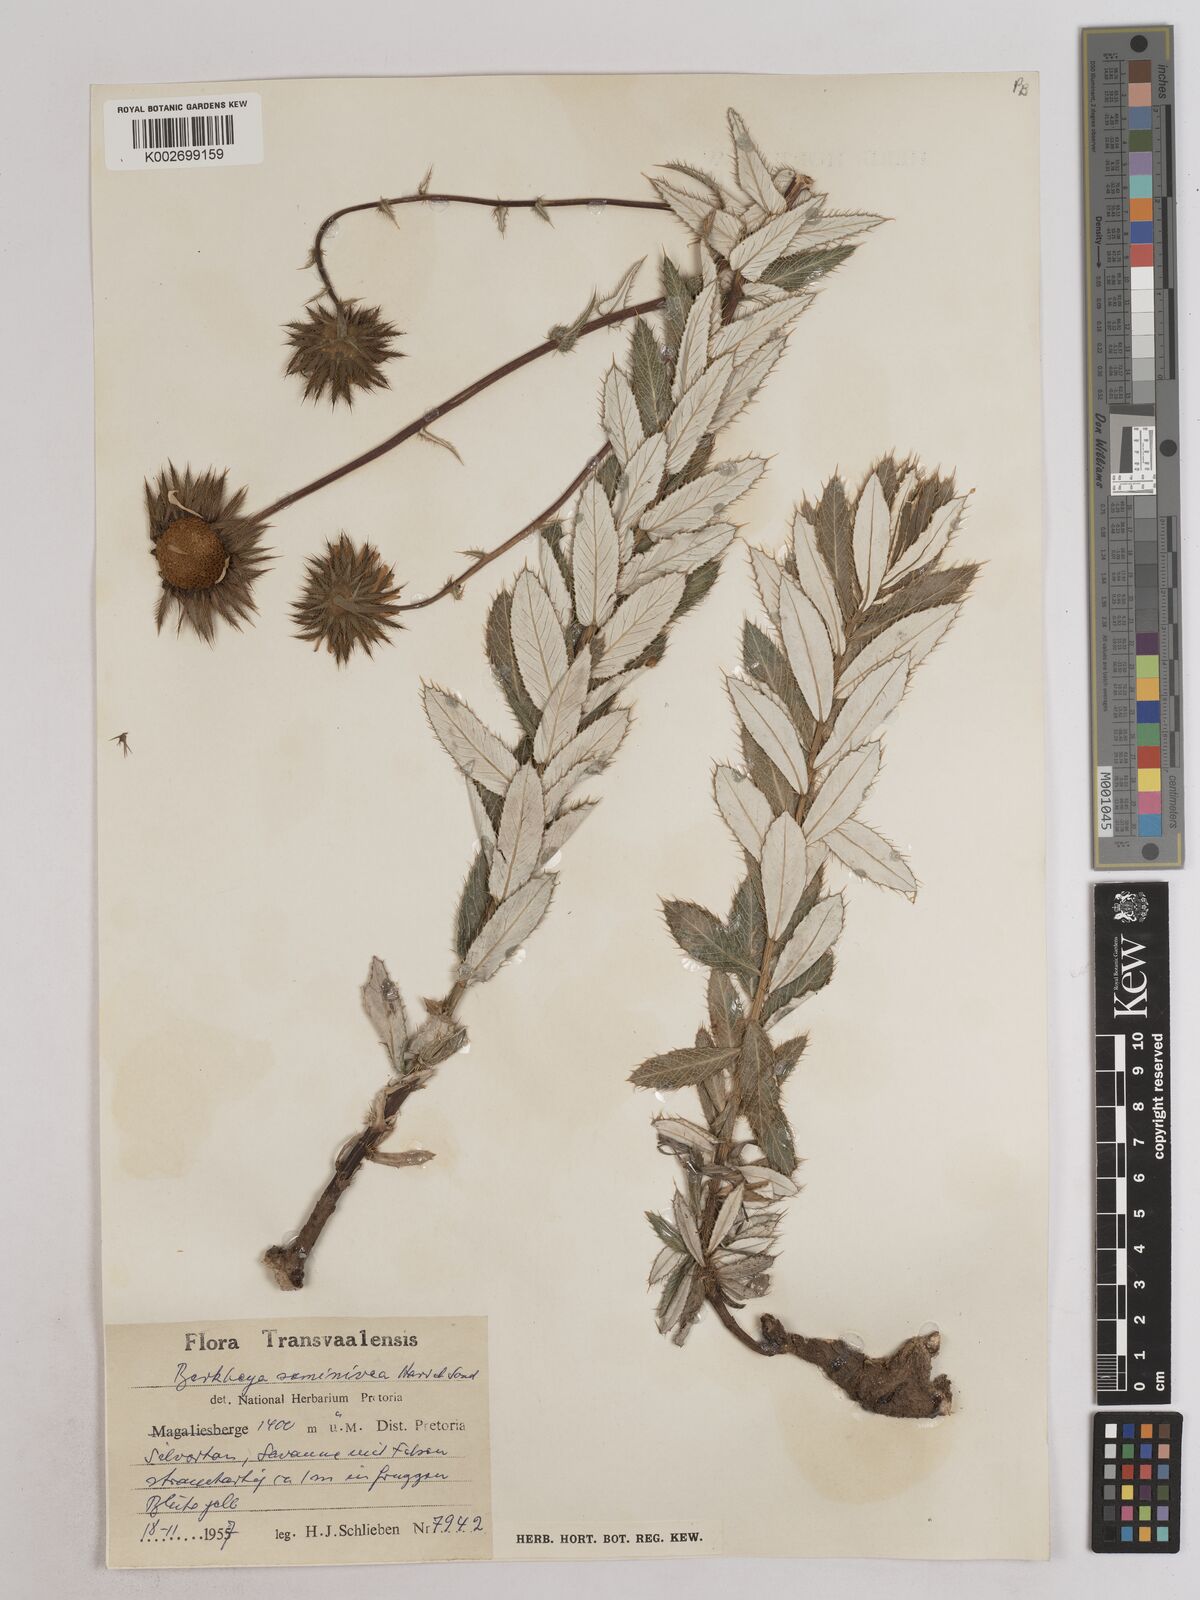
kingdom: Plantae
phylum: Tracheophyta
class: Magnoliopsida
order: Asterales
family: Asteraceae
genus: Berkheya
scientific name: Berkheya seminivea
